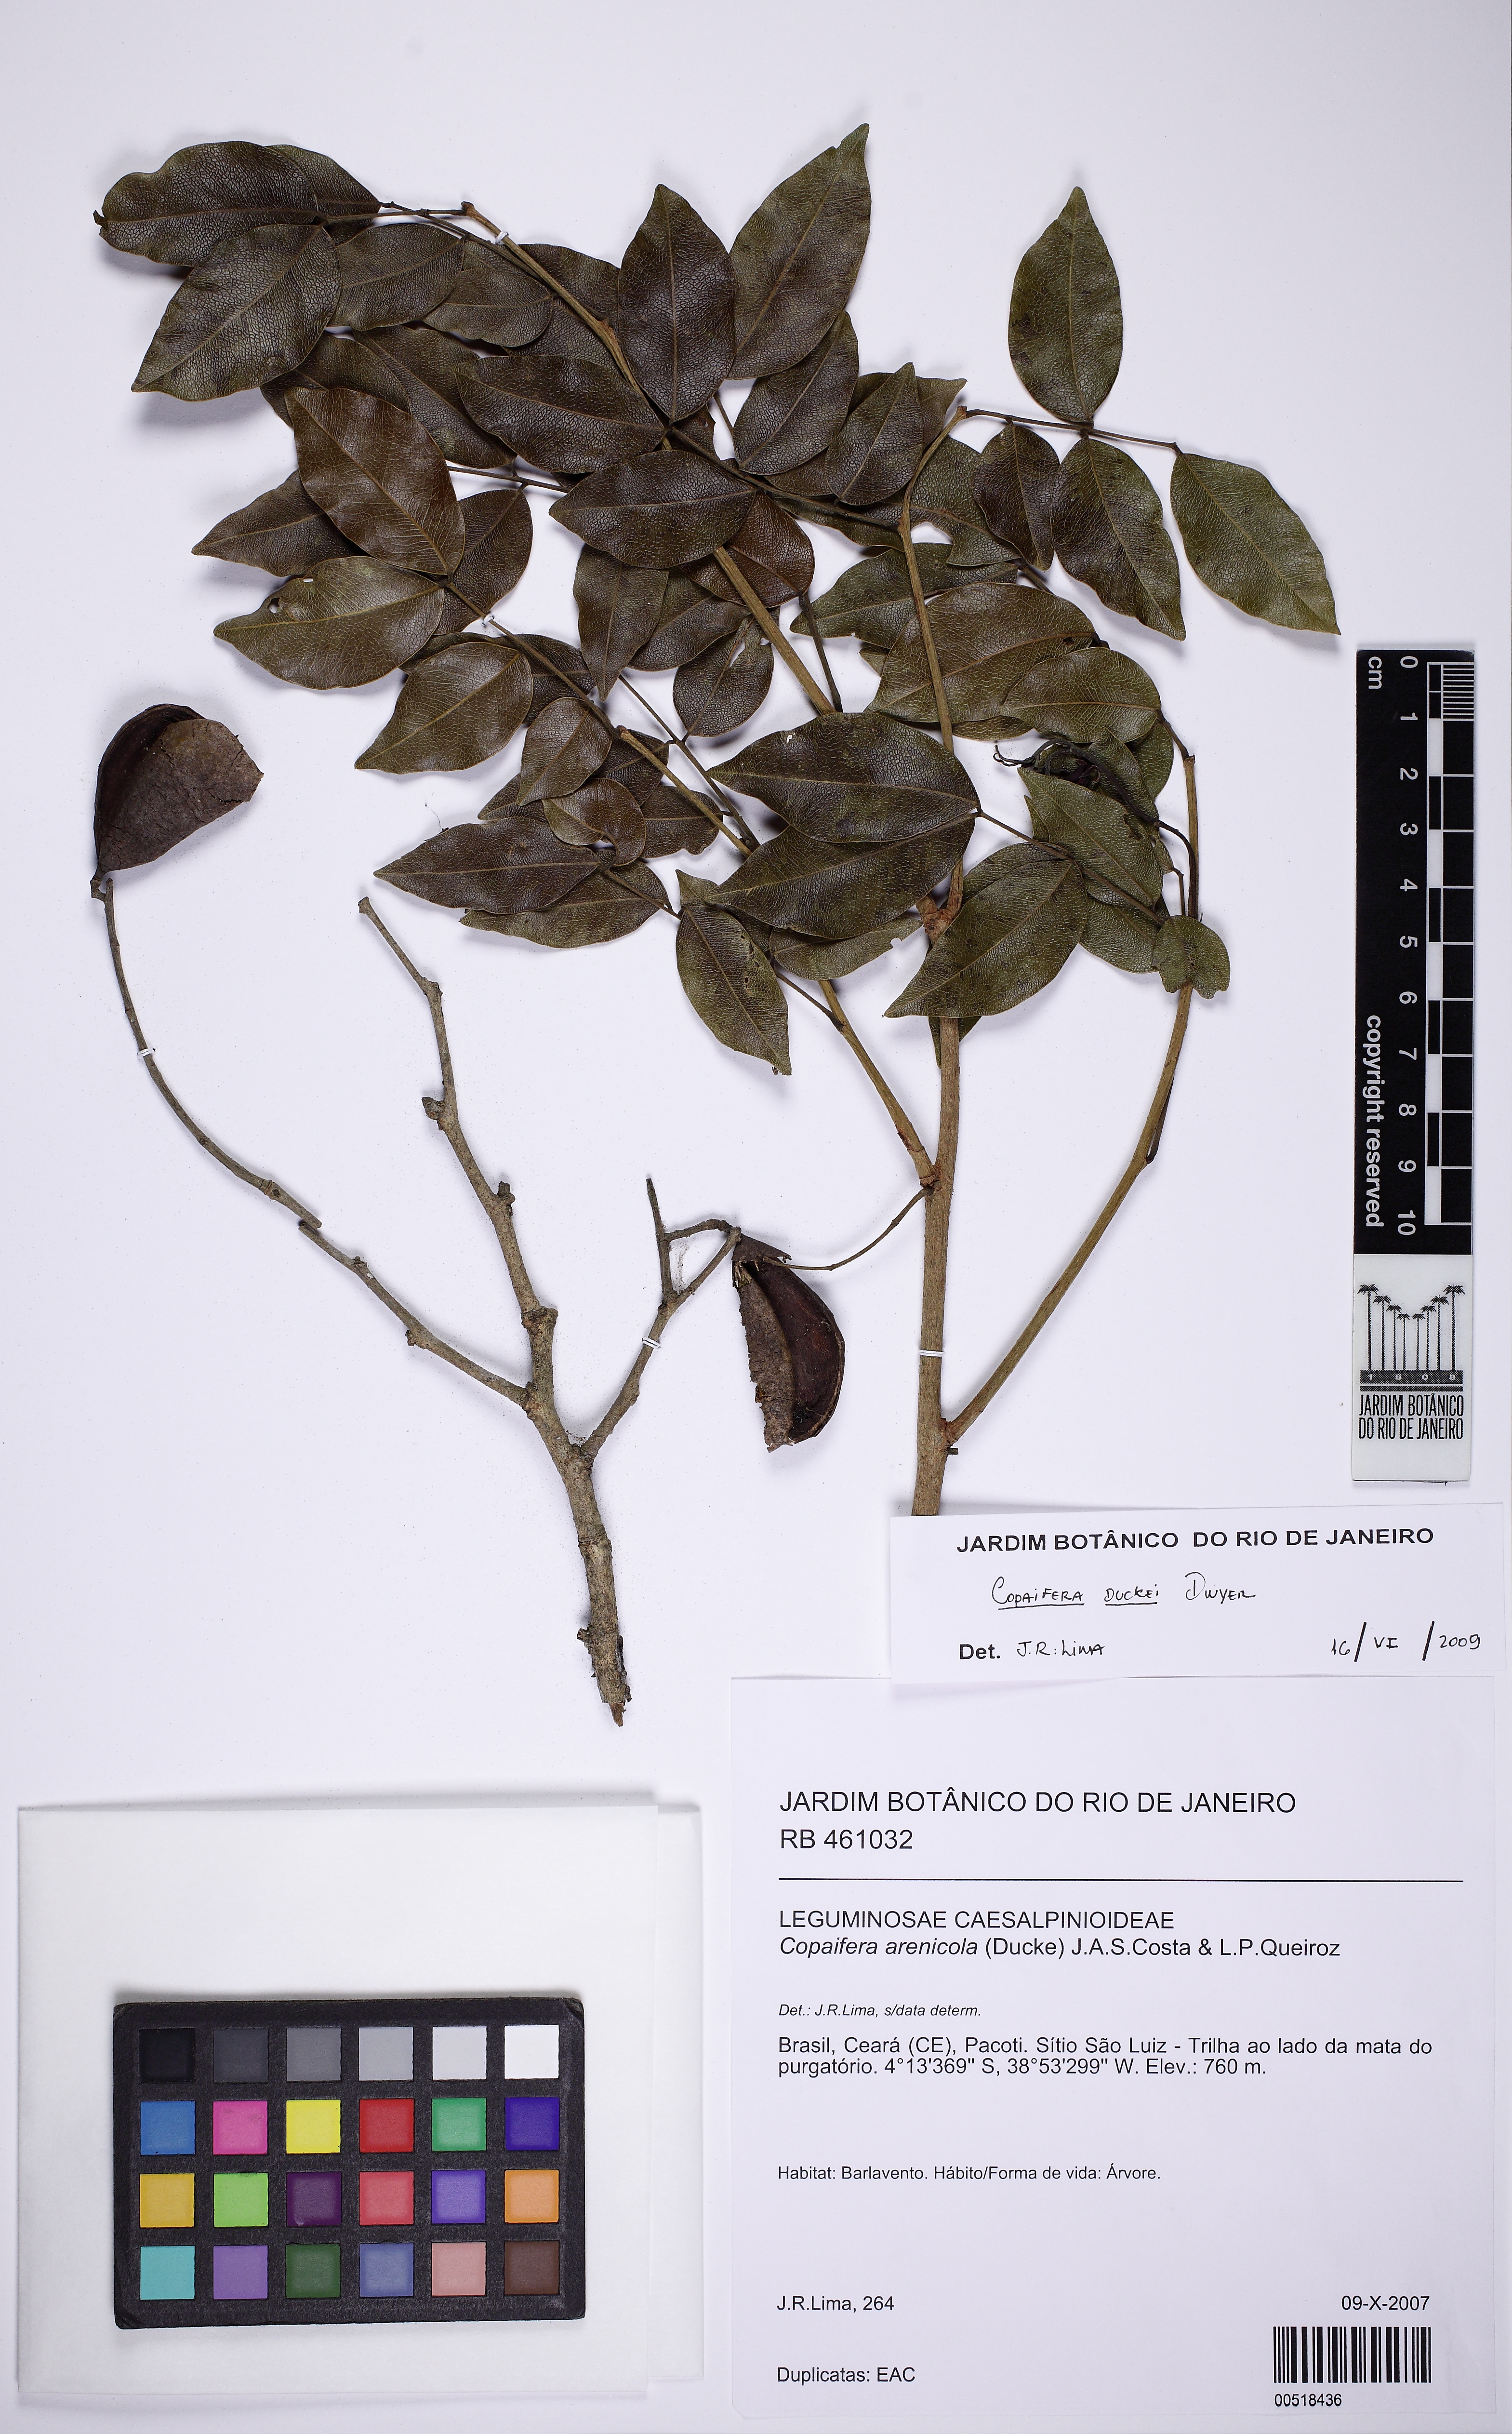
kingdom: Plantae
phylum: Tracheophyta
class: Magnoliopsida
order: Fabales
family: Fabaceae
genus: Copaifera
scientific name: Copaifera duckei
